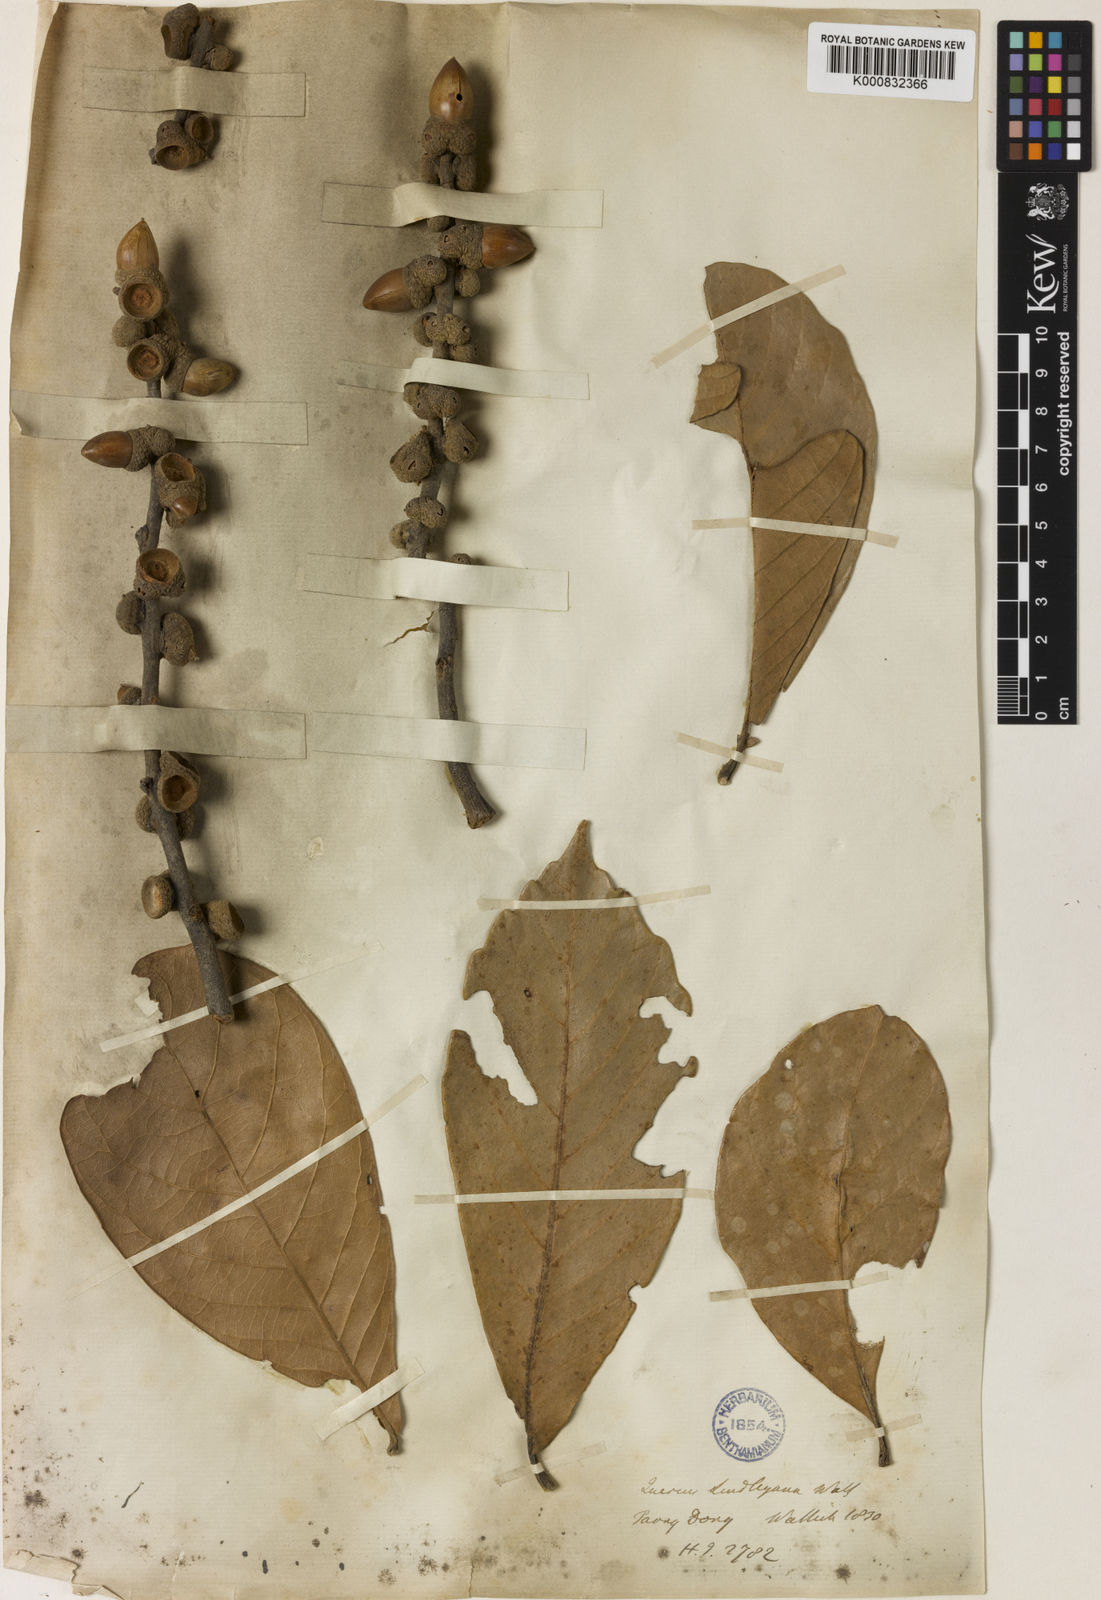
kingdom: Plantae
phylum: Tracheophyta
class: Magnoliopsida
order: Fagales
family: Fagaceae
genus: Lithocarpus
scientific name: Lithocarpus lindleyanus
